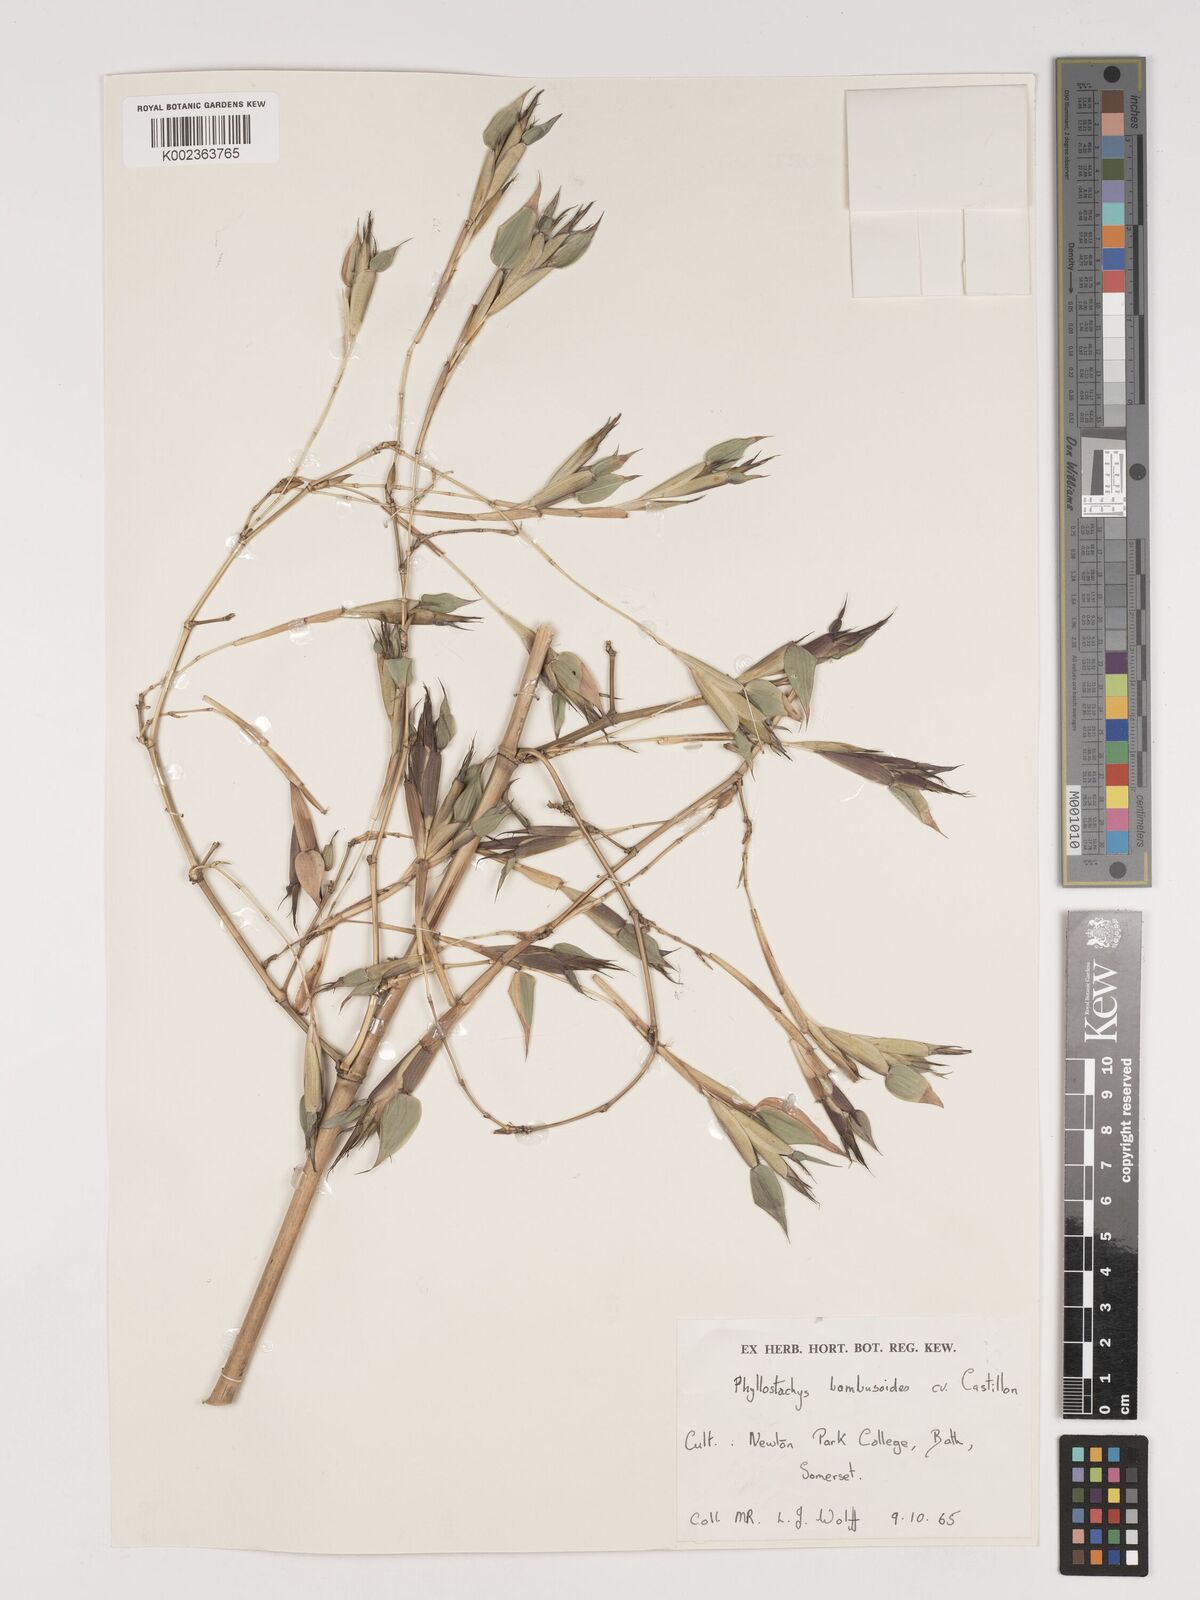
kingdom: Plantae
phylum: Tracheophyta
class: Liliopsida
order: Poales
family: Poaceae
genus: Phyllostachys
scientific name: Phyllostachys reticulata
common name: Bamboo
